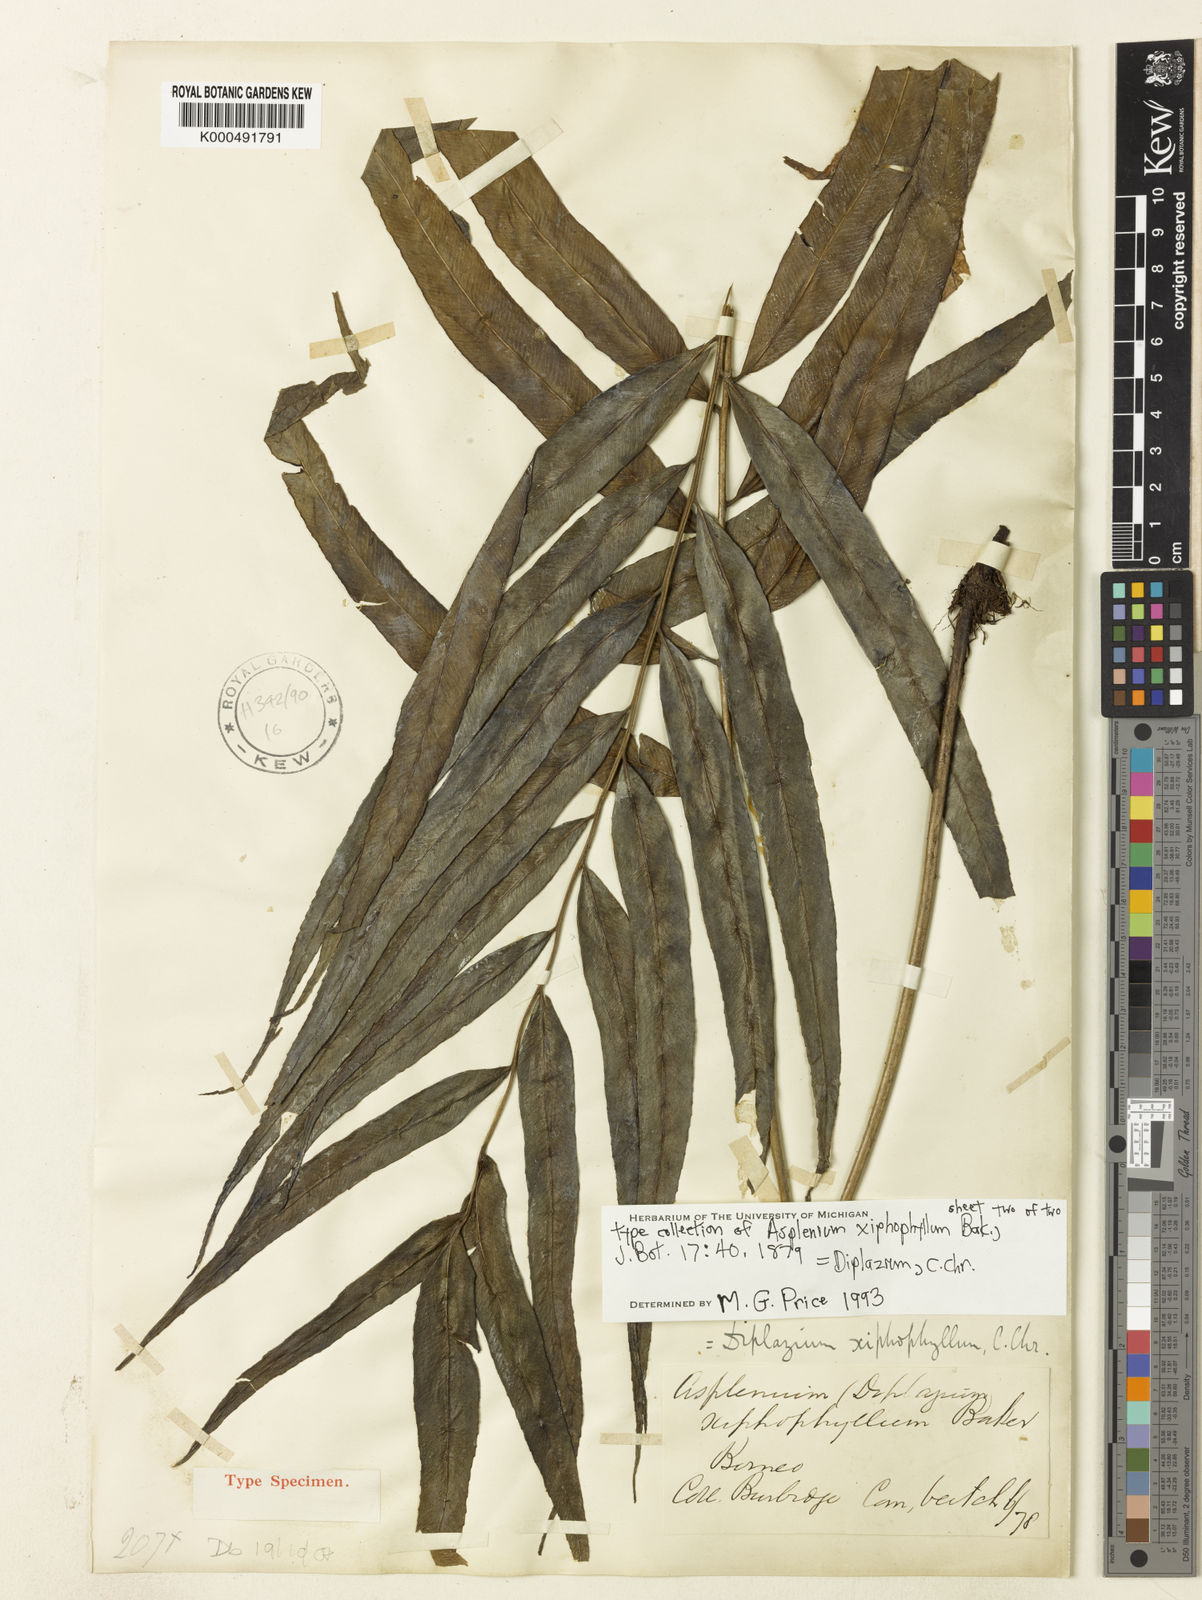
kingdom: Plantae
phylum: Tracheophyta
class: Polypodiopsida
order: Polypodiales
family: Athyriaceae
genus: Diplazium
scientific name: Diplazium xiphophyllum
